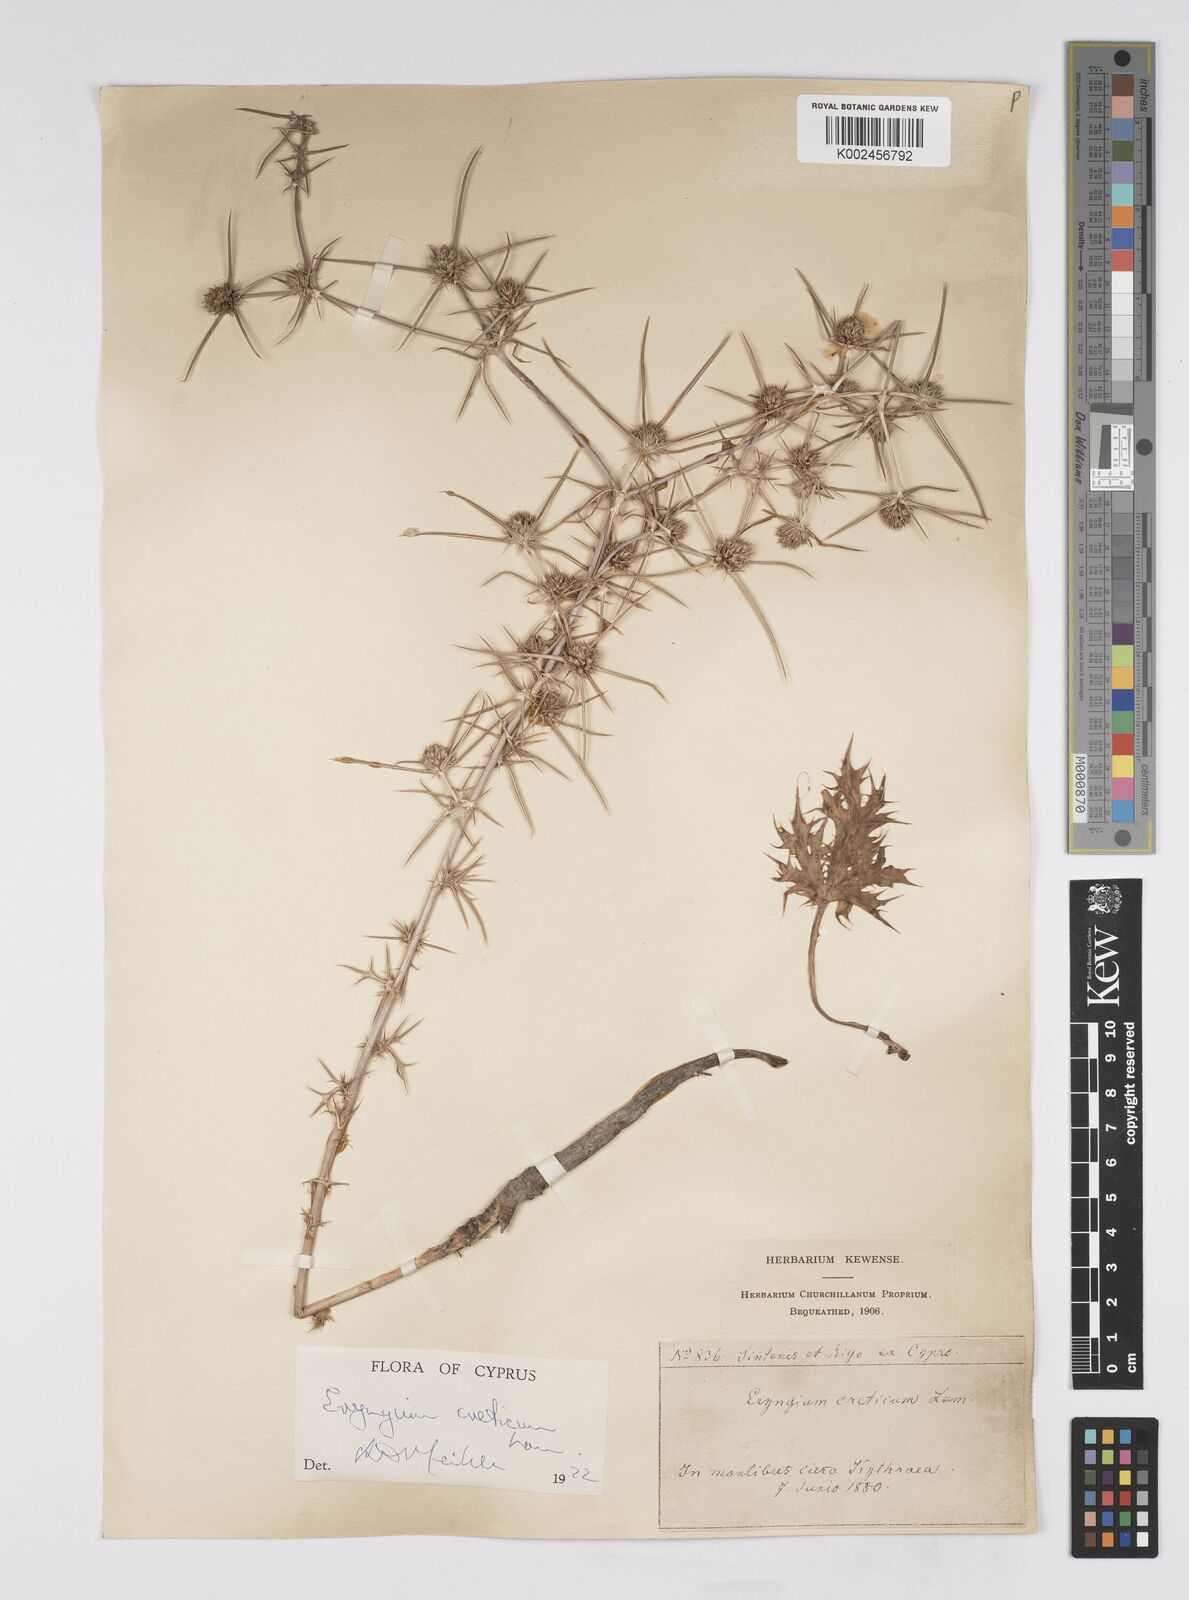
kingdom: Plantae
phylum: Tracheophyta
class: Magnoliopsida
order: Apiales
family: Apiaceae
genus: Eryngium
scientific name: Eryngium creticum
